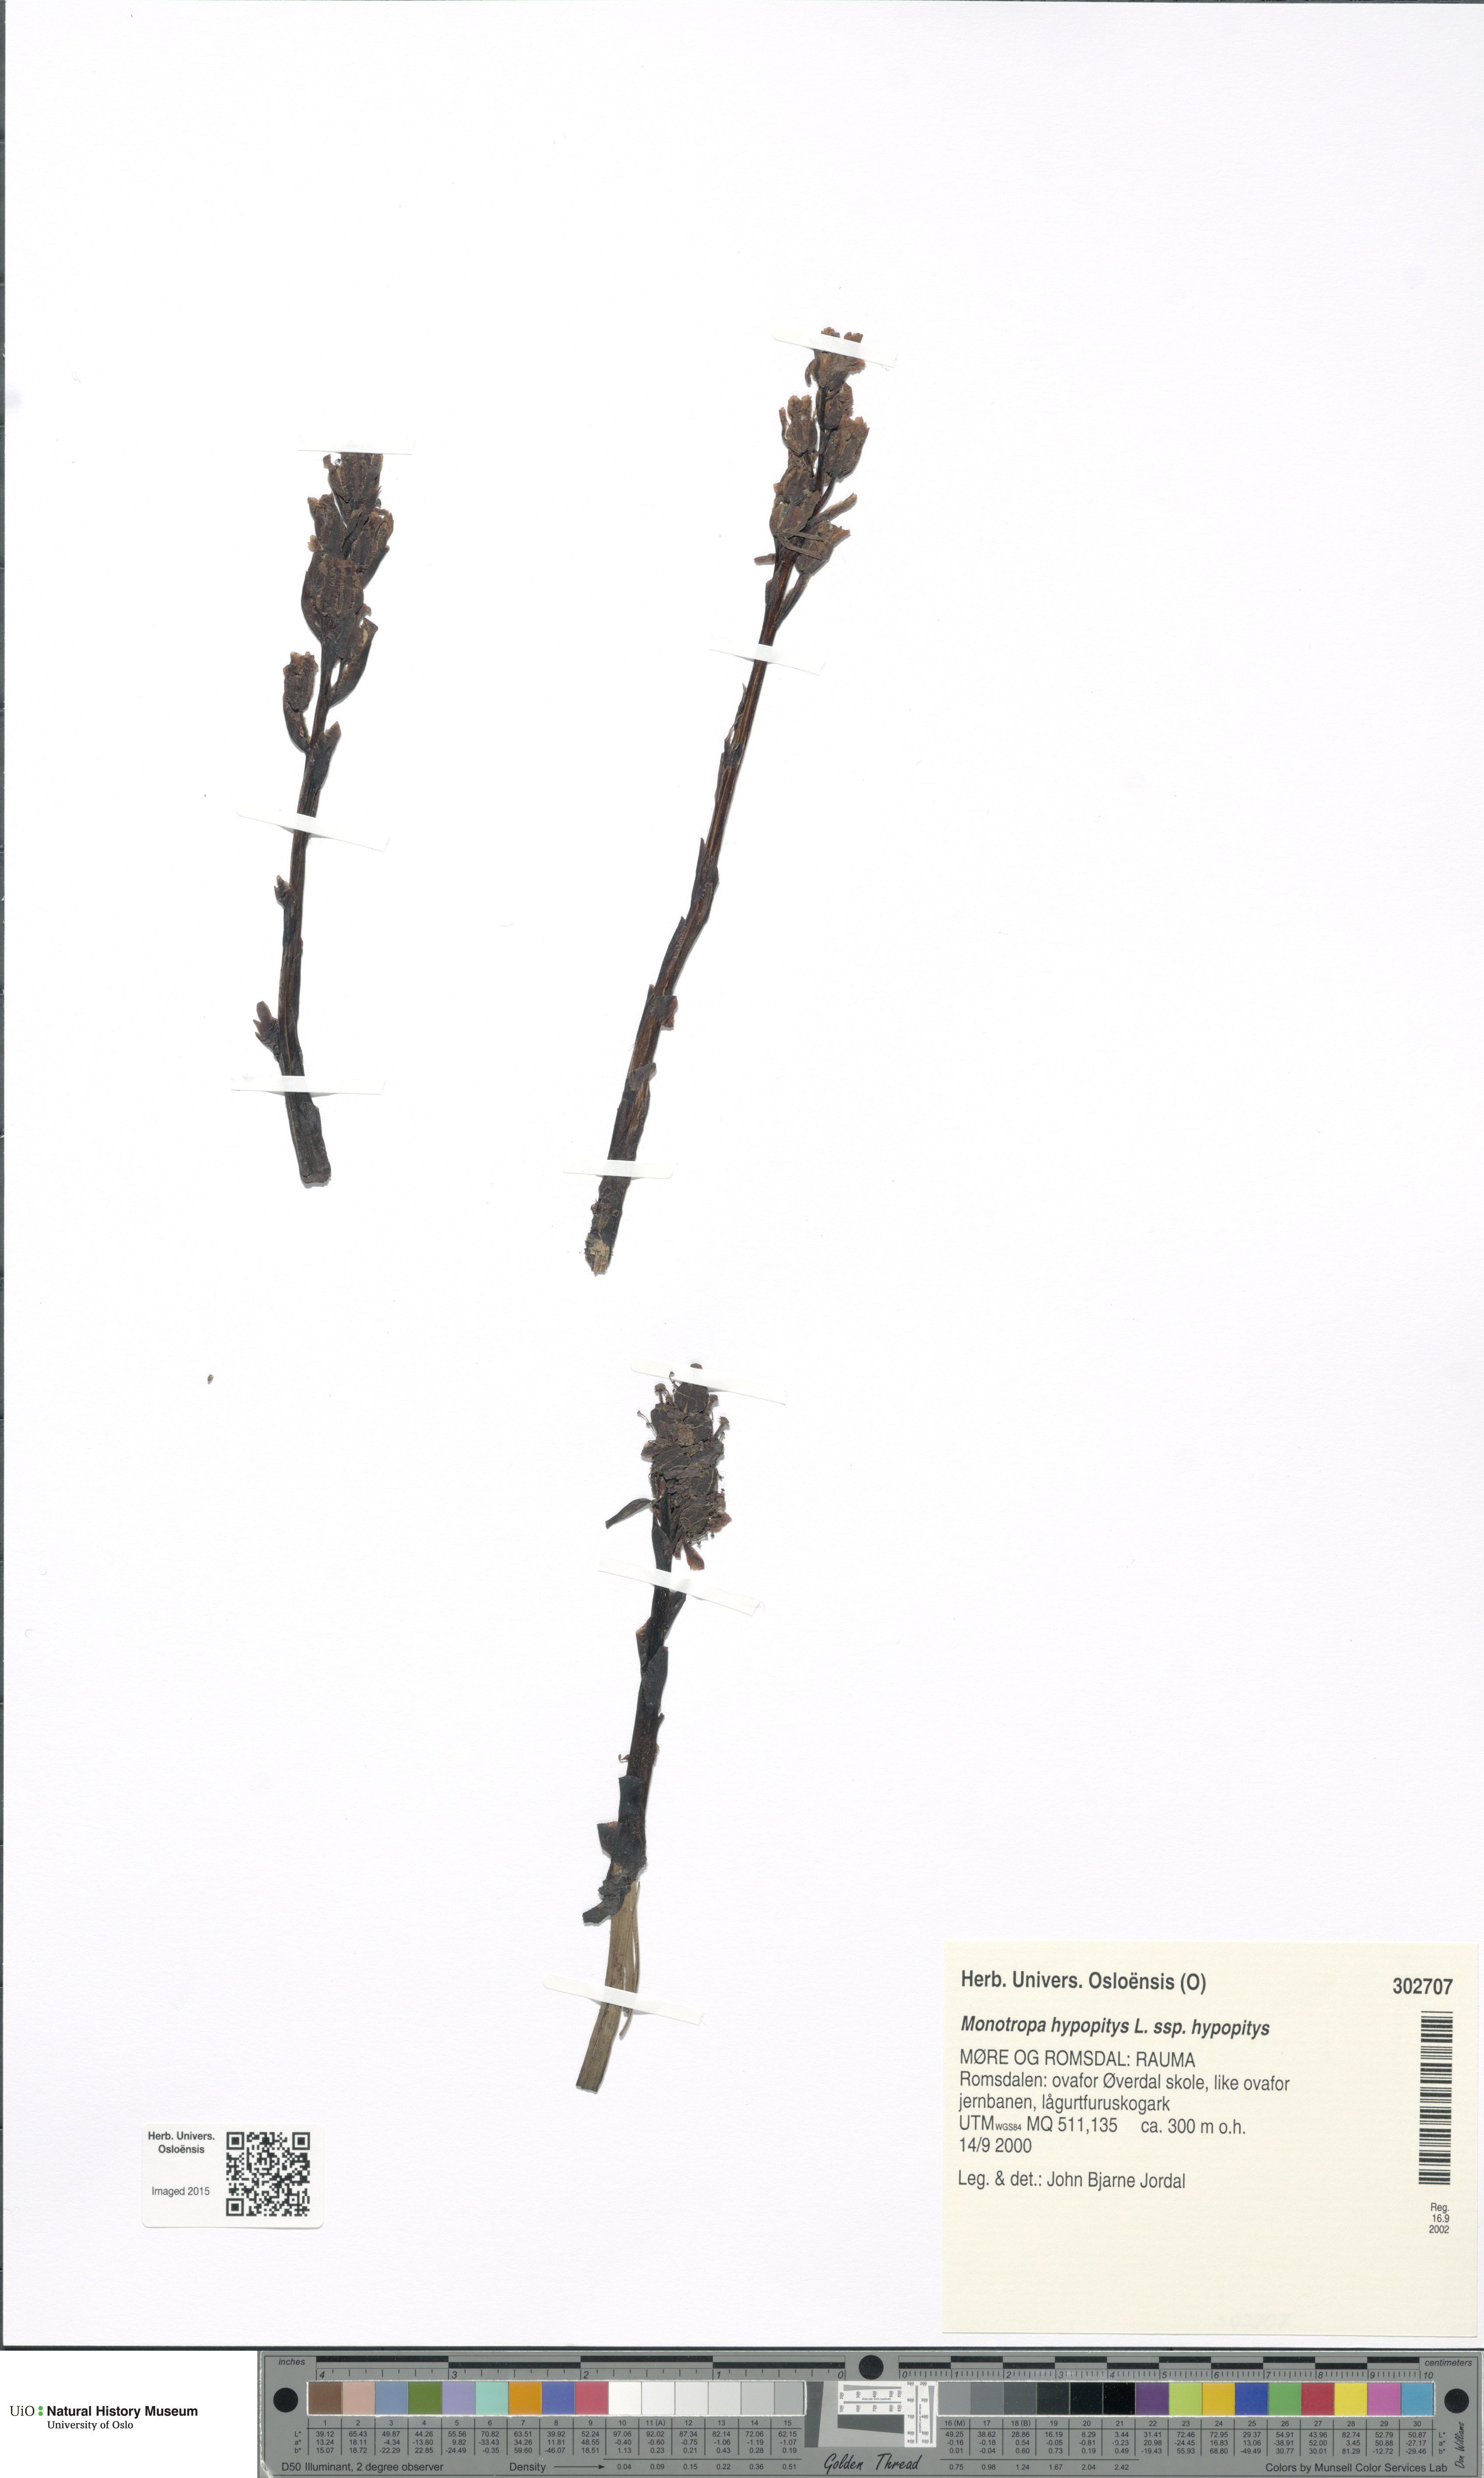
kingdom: Plantae
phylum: Tracheophyta
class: Magnoliopsida
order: Ericales
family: Ericaceae
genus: Hypopitys
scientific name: Hypopitys monotropa
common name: Yellow bird's-nest
